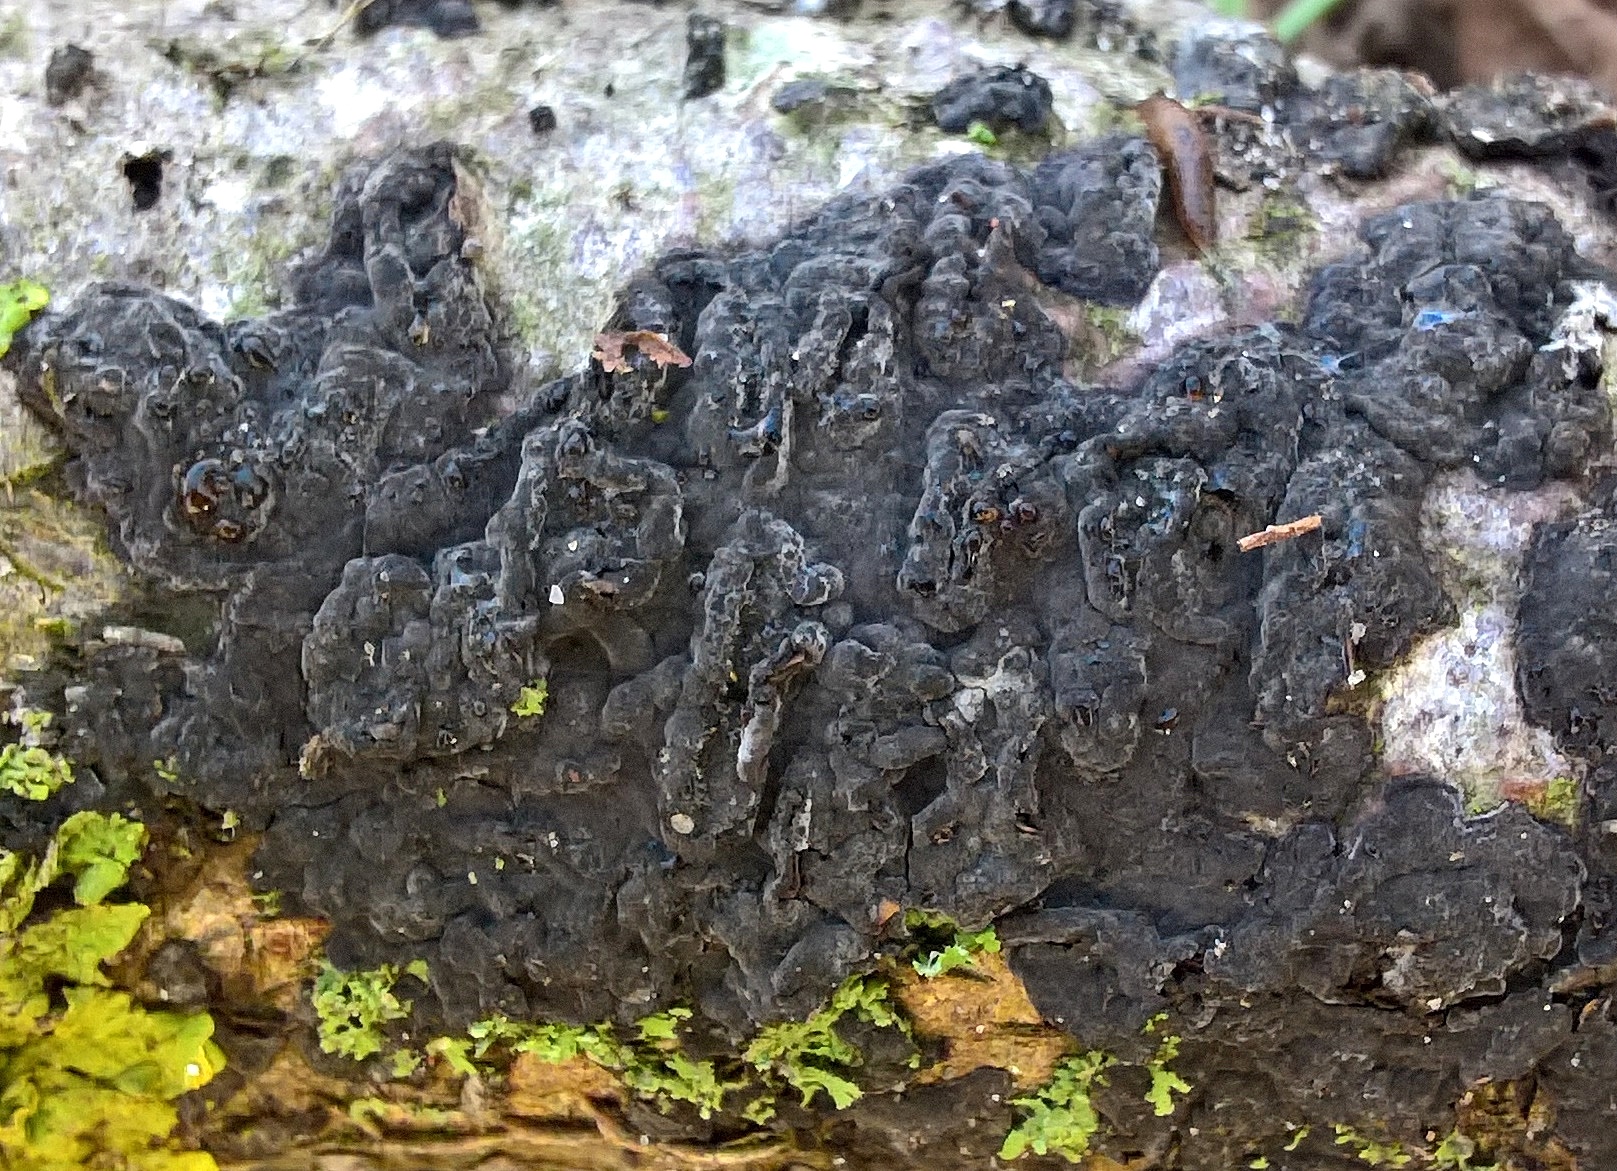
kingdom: Fungi
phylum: Basidiomycota
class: Agaricomycetes
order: Russulales
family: Peniophoraceae
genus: Peniophora
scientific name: Peniophora rufomarginata
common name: linde-voksskind
